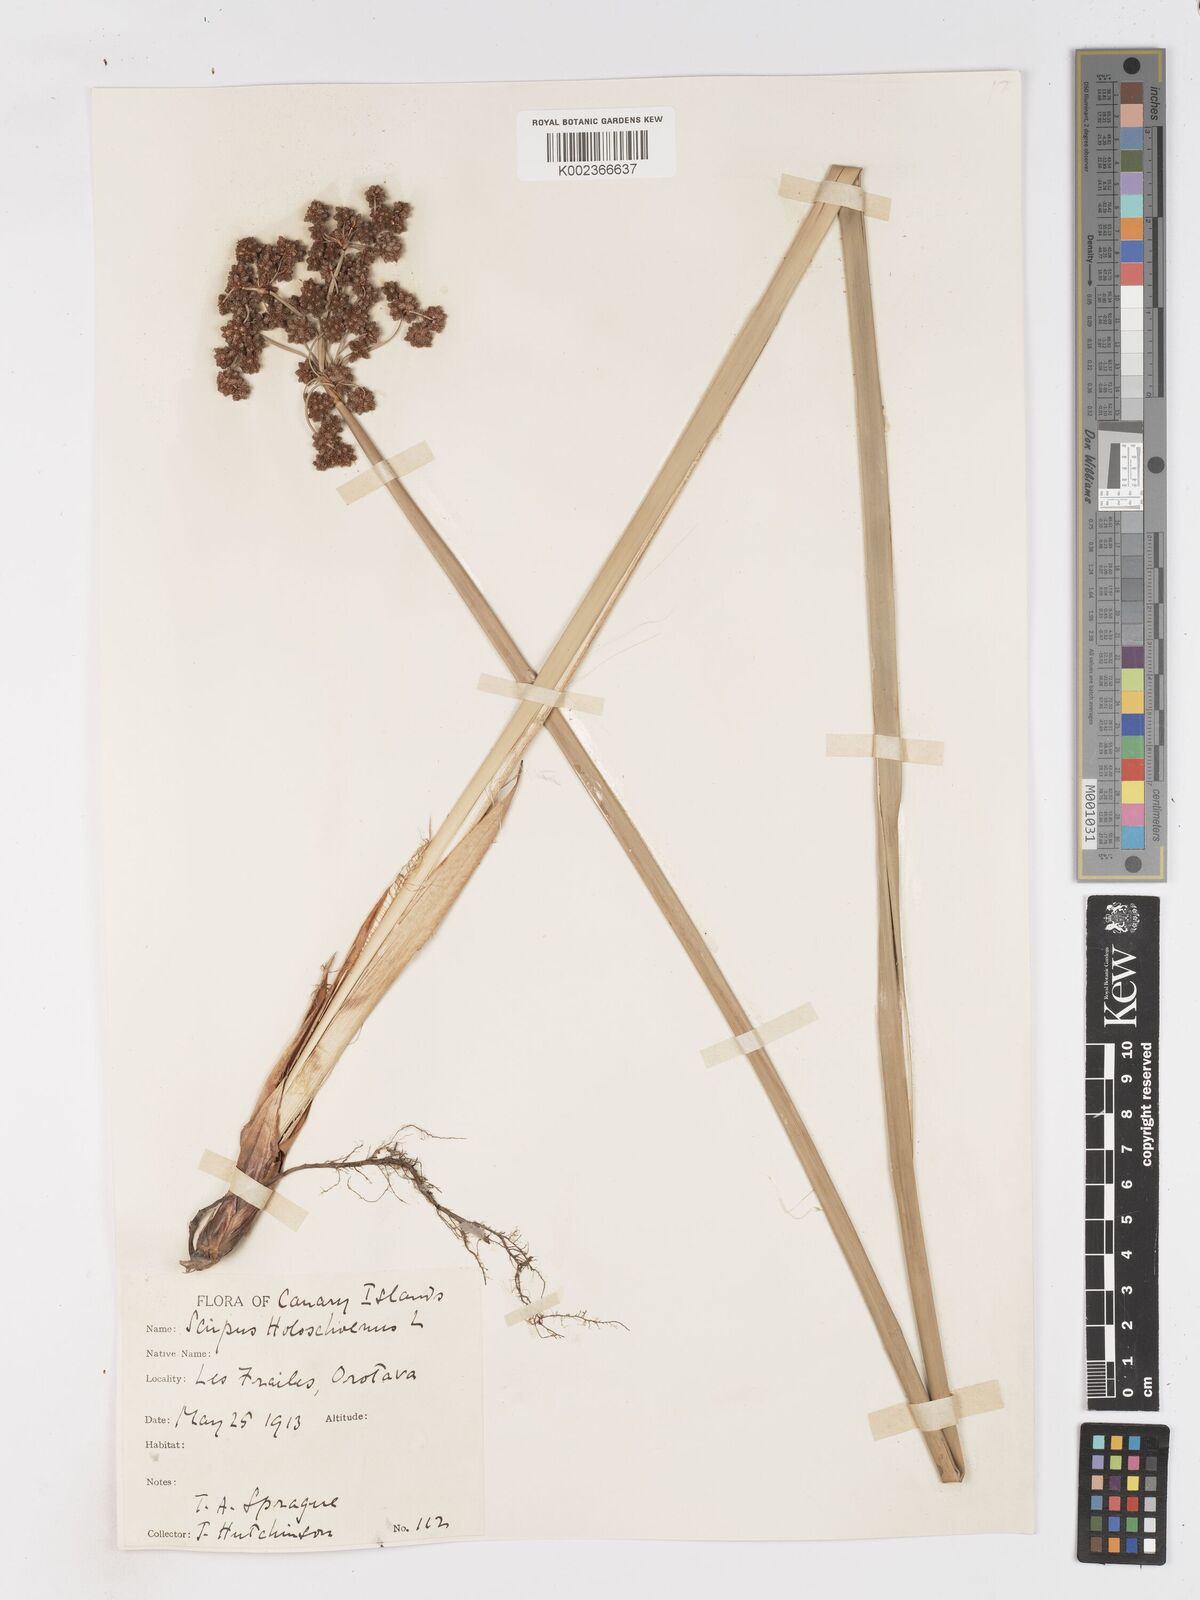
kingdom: Plantae
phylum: Tracheophyta
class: Liliopsida
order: Poales
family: Cyperaceae
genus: Scirpoides
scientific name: Scirpoides holoschoenus
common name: Round-headed club-rush
